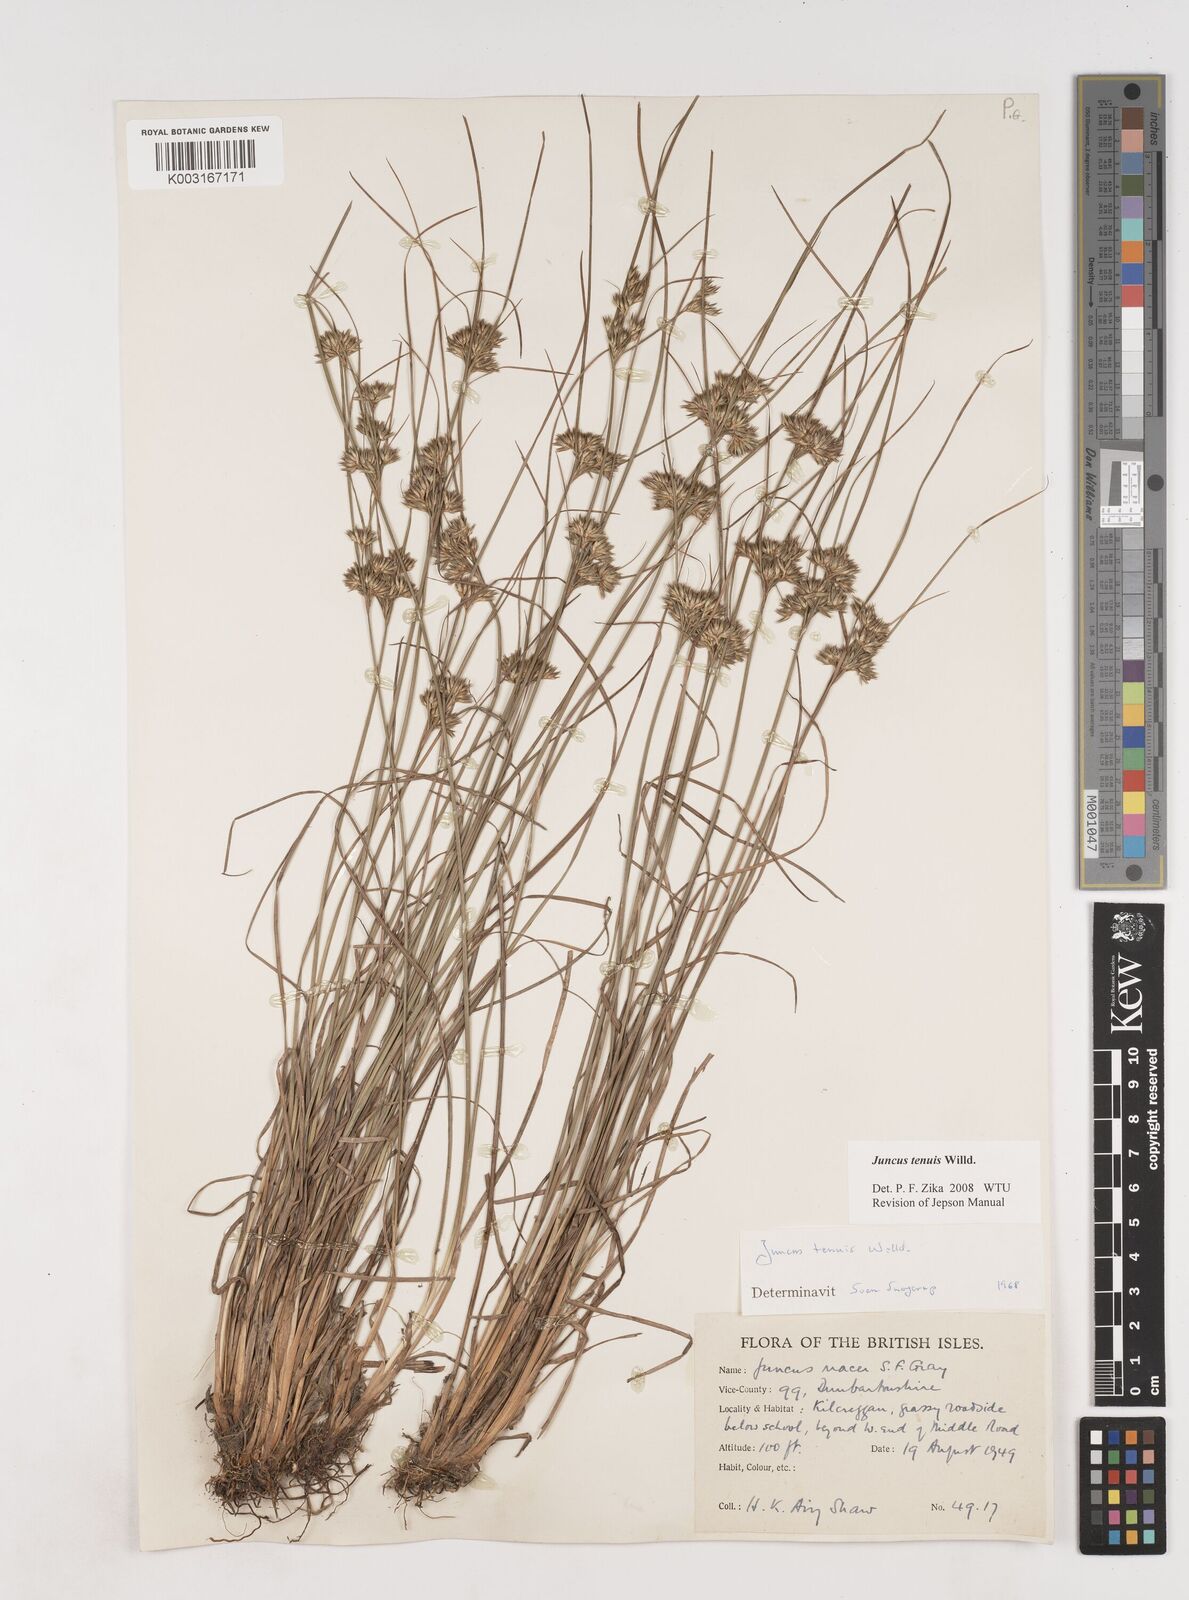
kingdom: Plantae
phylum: Tracheophyta
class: Liliopsida
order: Poales
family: Juncaceae
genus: Juncus
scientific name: Juncus tenuis
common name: Slender rush
